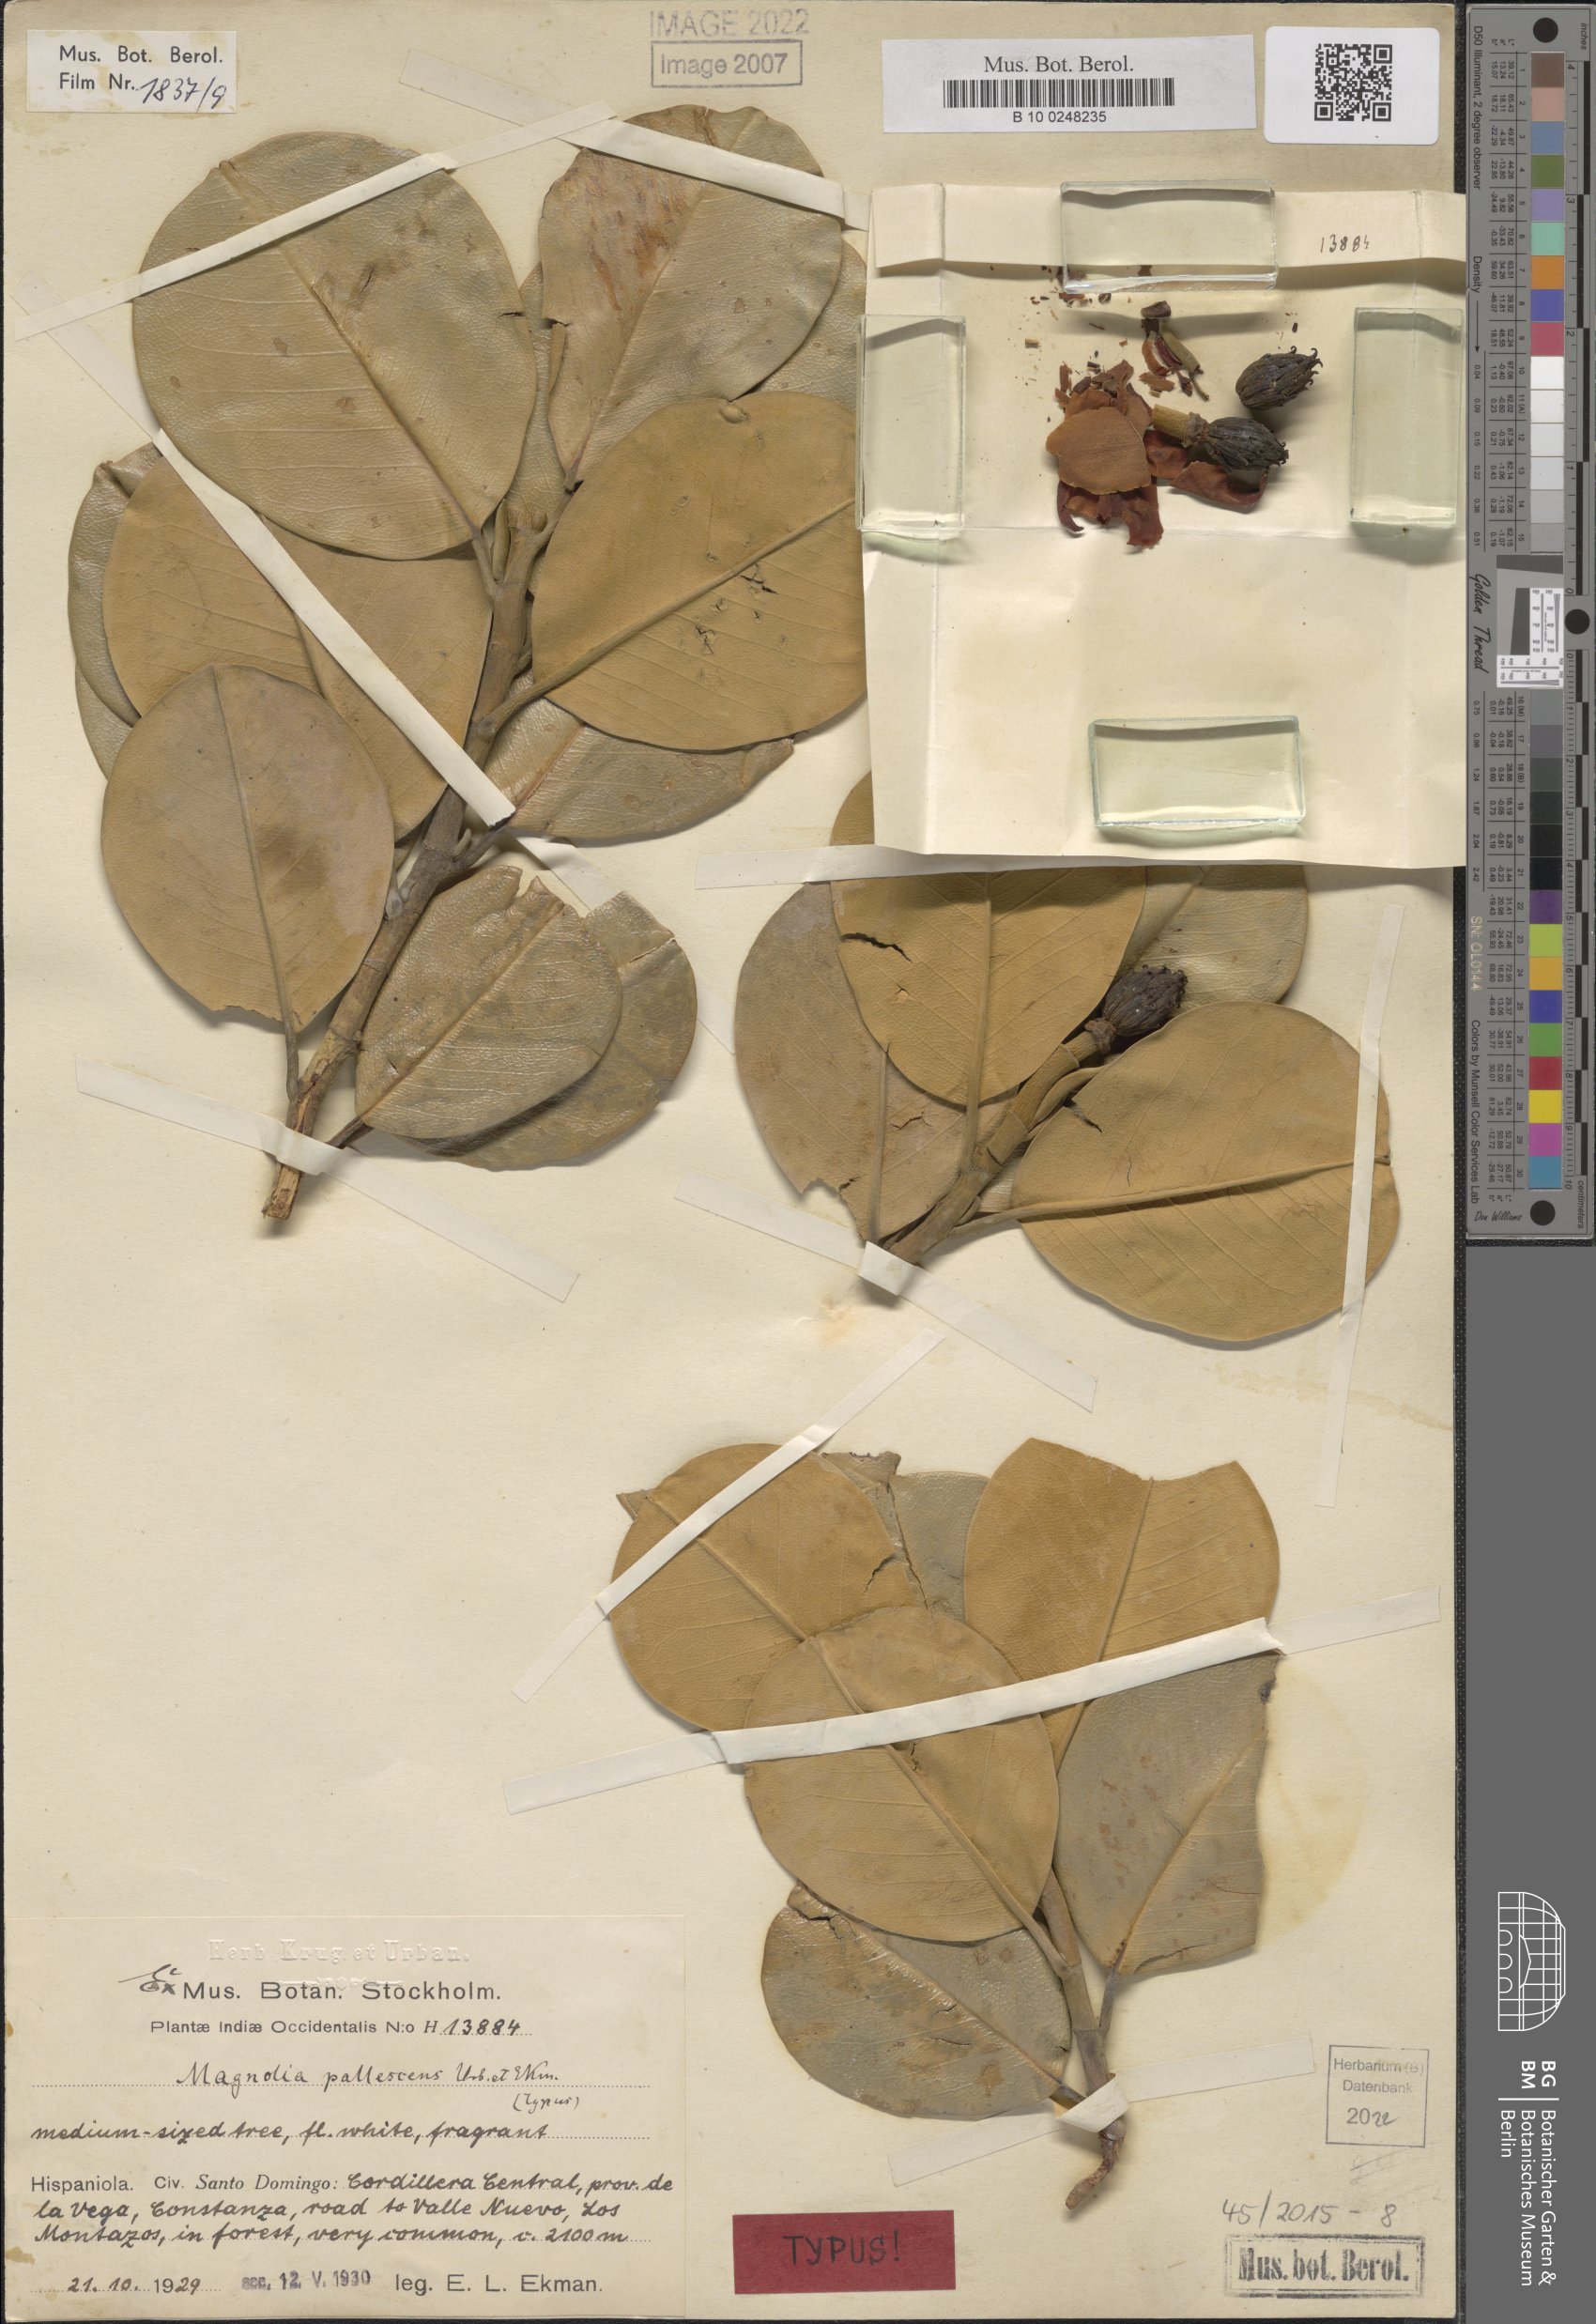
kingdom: Plantae
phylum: Tracheophyta
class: Magnoliopsida
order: Magnoliales
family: Magnoliaceae
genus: Magnolia
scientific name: Magnolia pallescens
